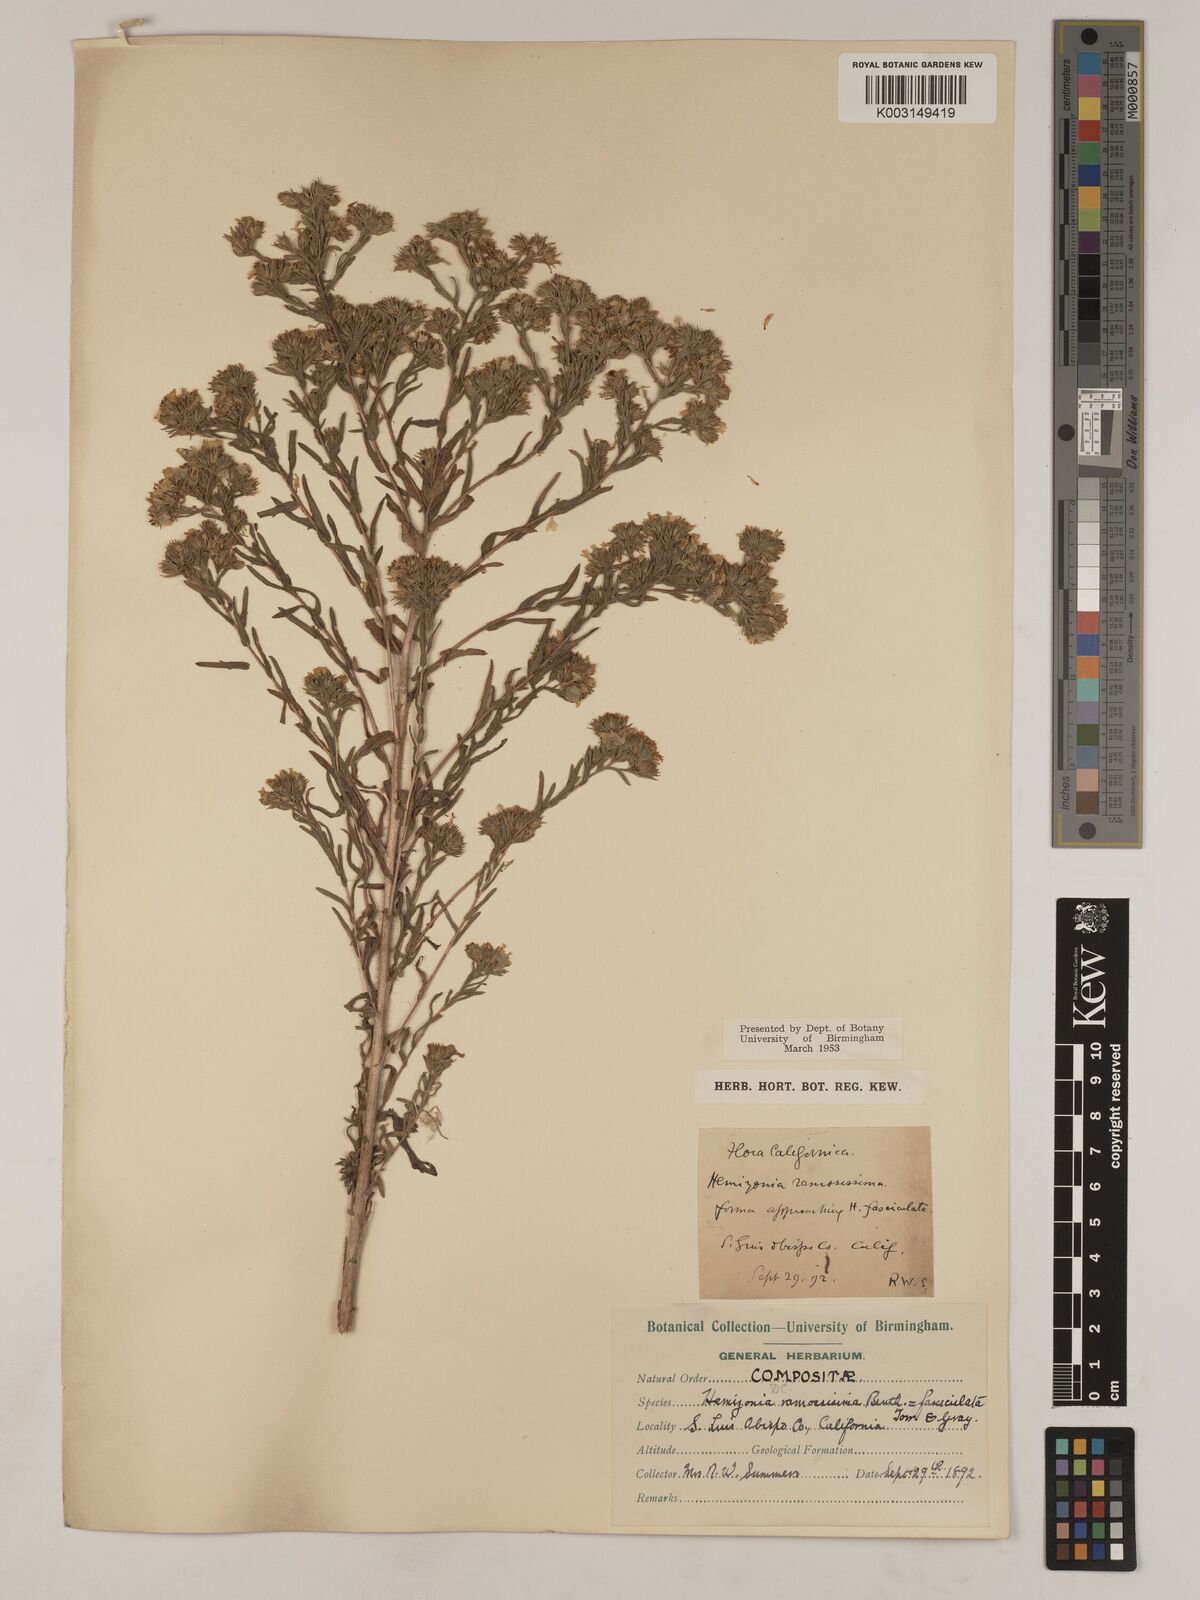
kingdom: Plantae
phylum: Tracheophyta
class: Magnoliopsida
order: Asterales
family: Asteraceae
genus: Deinandra
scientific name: Deinandra pentactis
